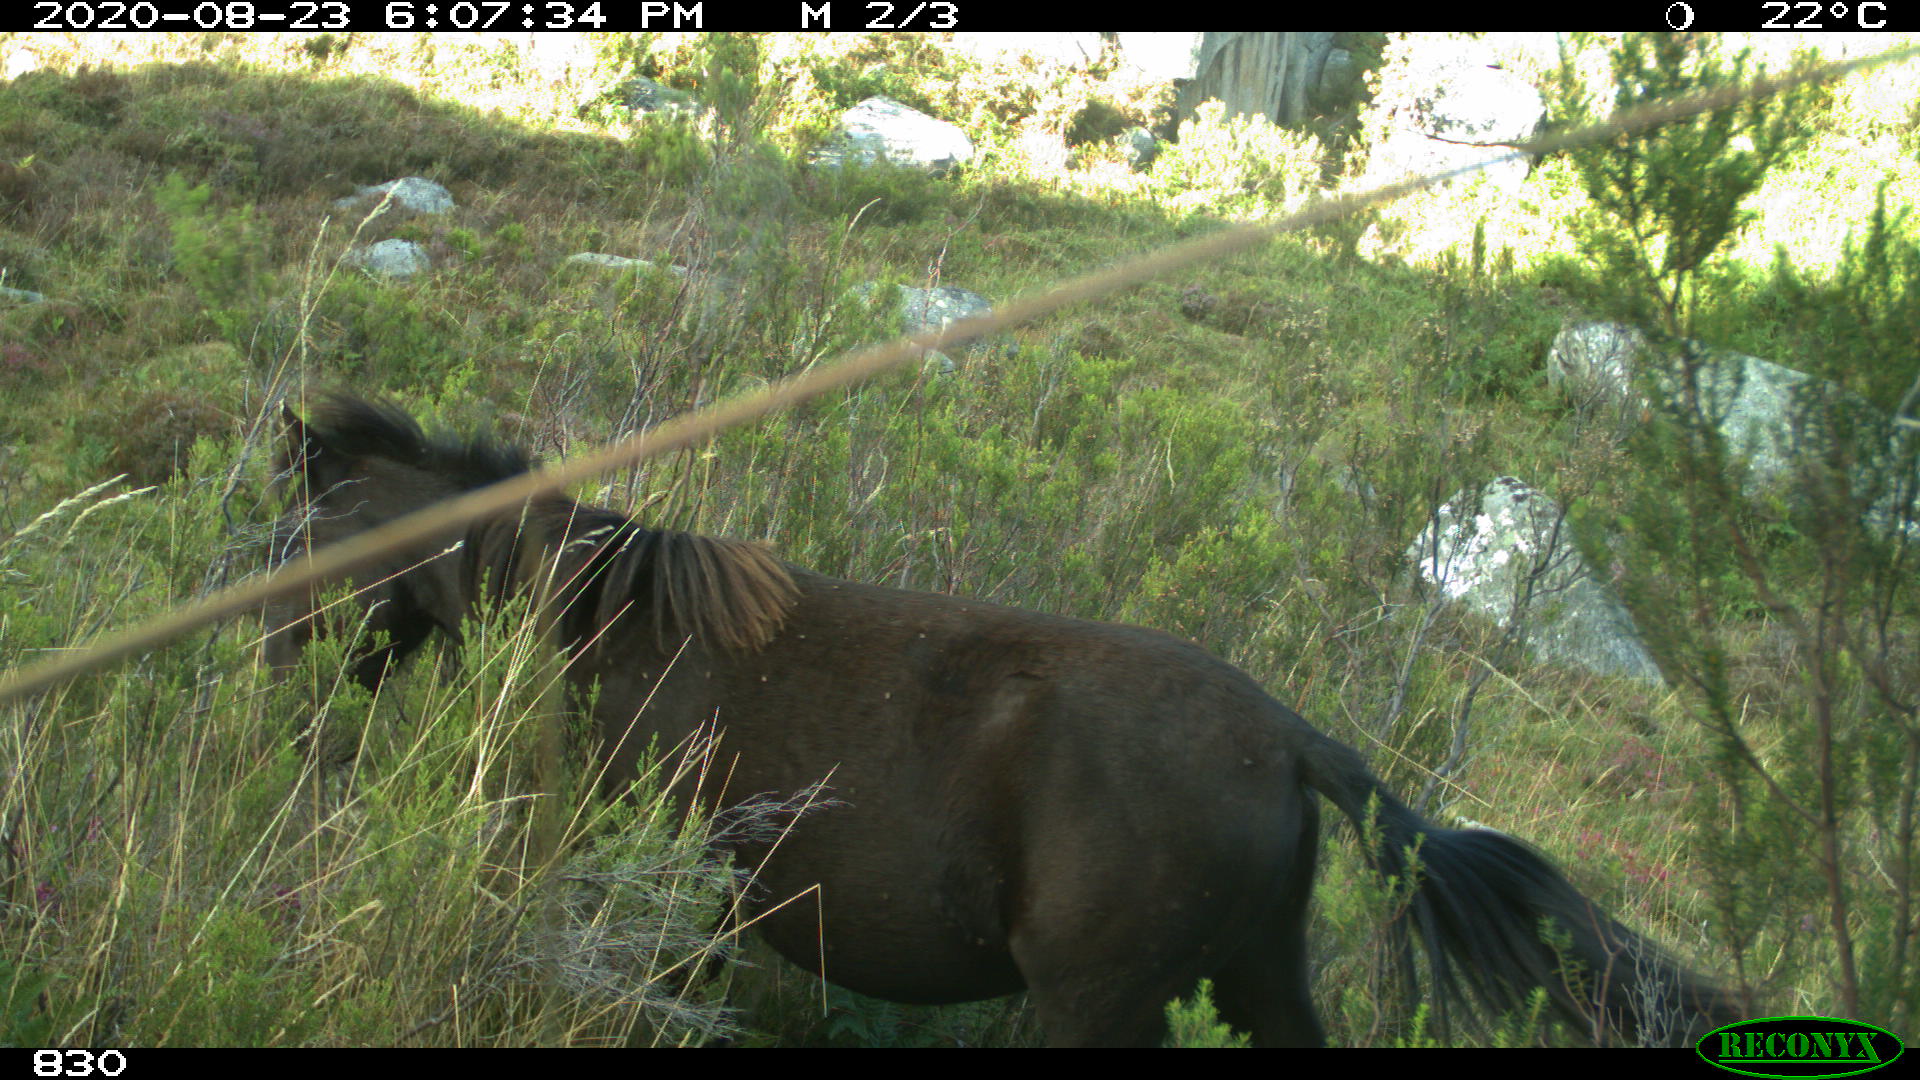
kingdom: Animalia
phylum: Chordata
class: Mammalia
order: Perissodactyla
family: Equidae
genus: Equus
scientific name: Equus caballus
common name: Horse
